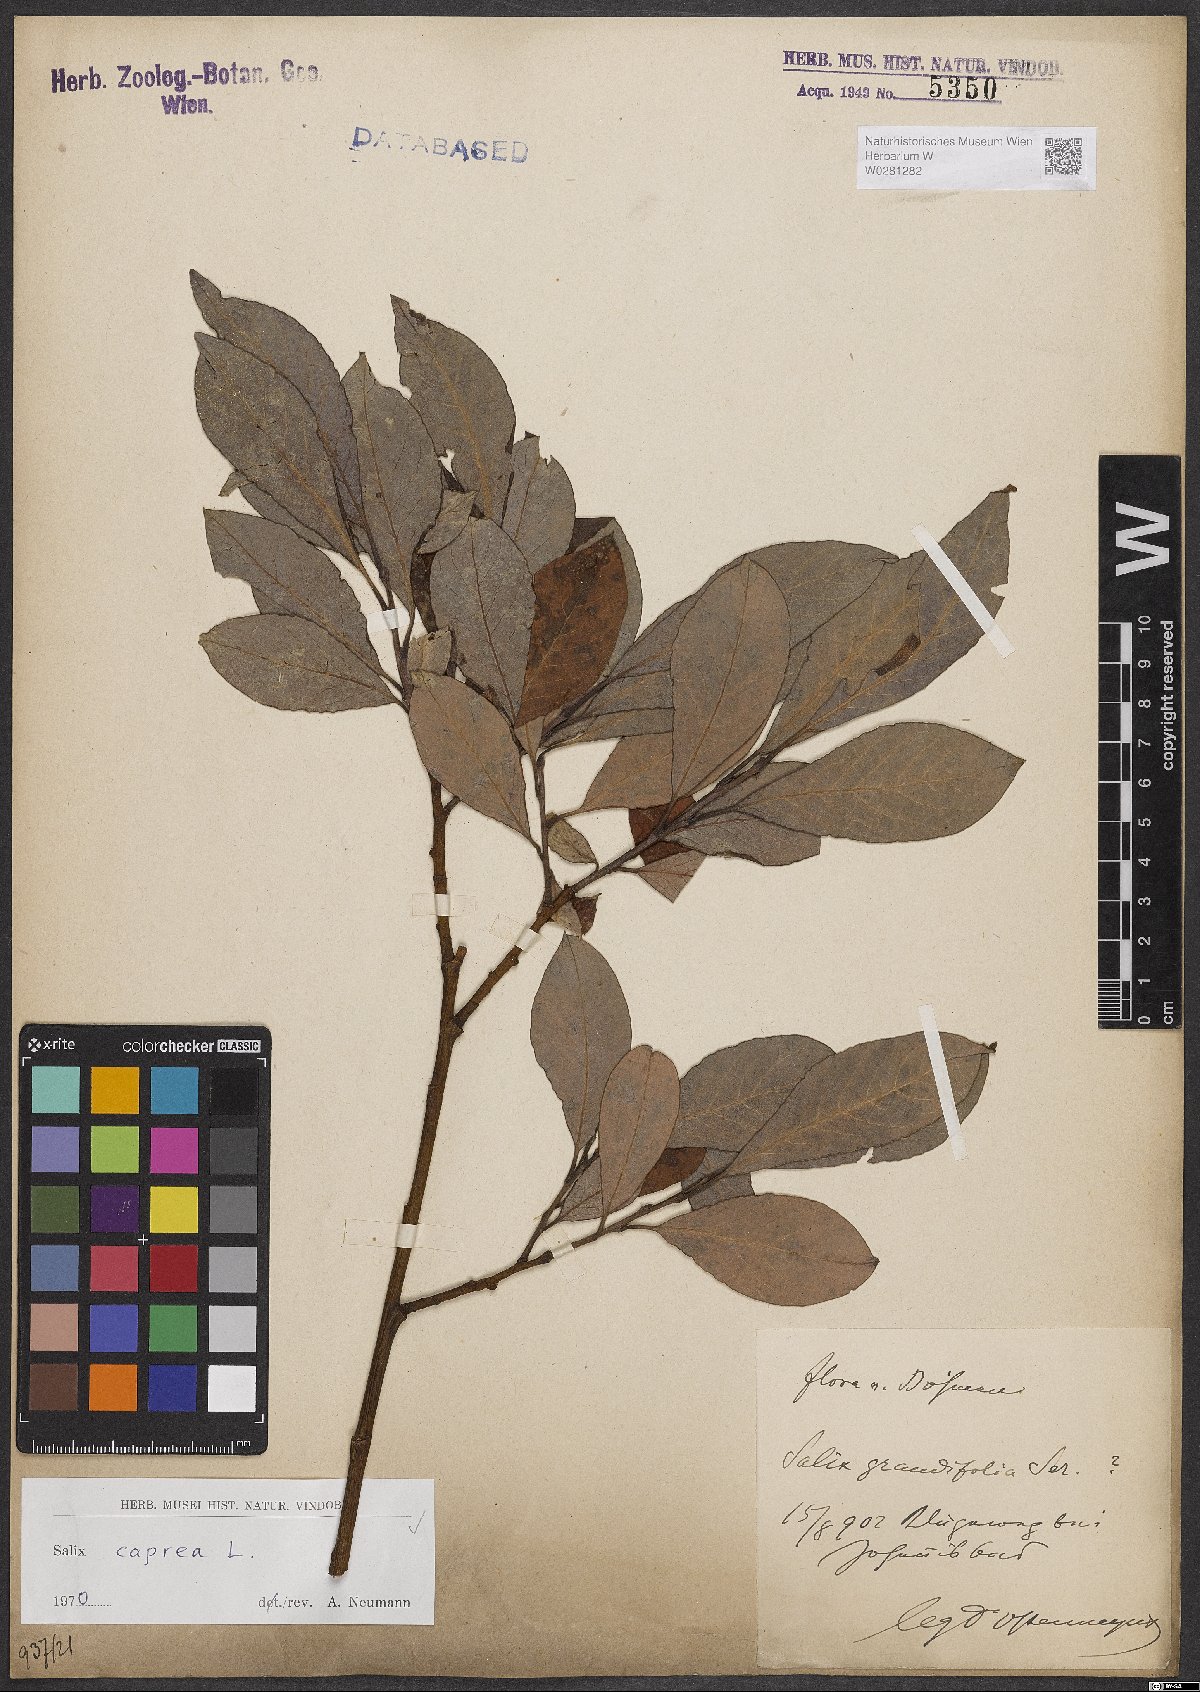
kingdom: Plantae
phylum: Tracheophyta
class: Magnoliopsida
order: Malpighiales
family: Salicaceae
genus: Salix
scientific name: Salix caprea
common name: Goat willow
